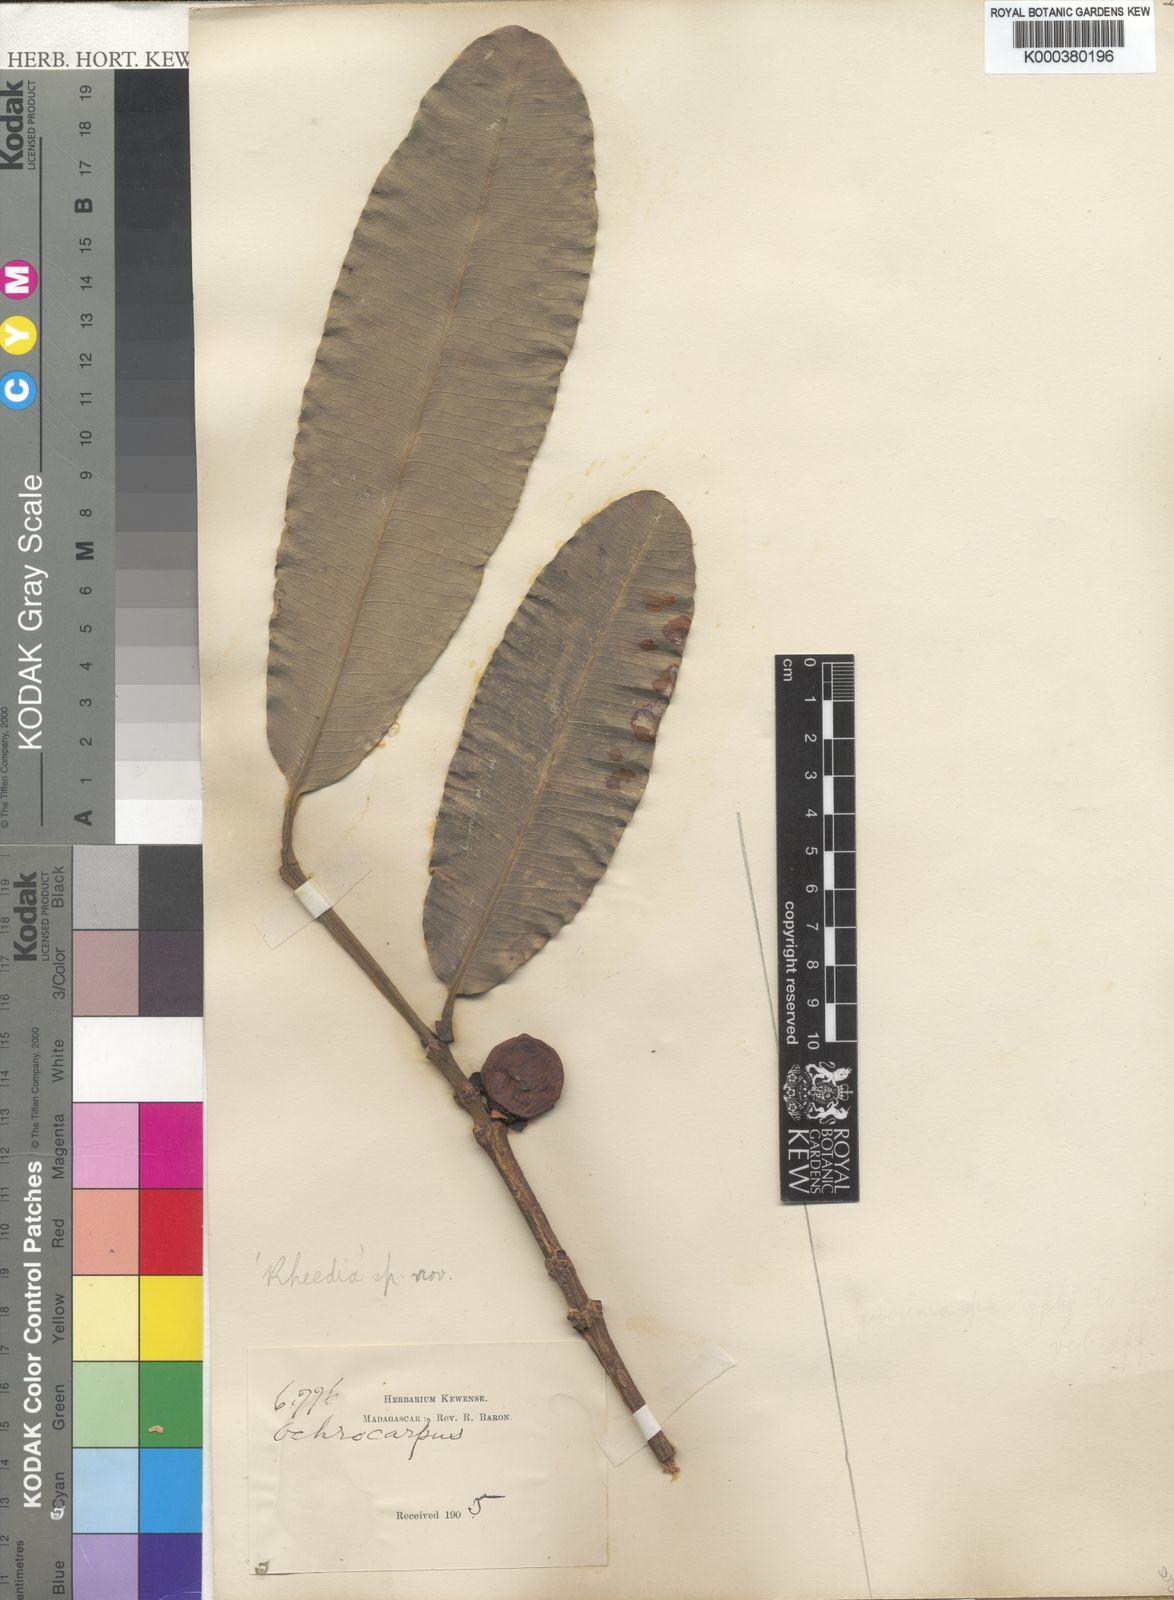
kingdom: Plantae
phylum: Tracheophyta
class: Magnoliopsida
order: Malpighiales
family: Clusiaceae
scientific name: Clusiaceae
